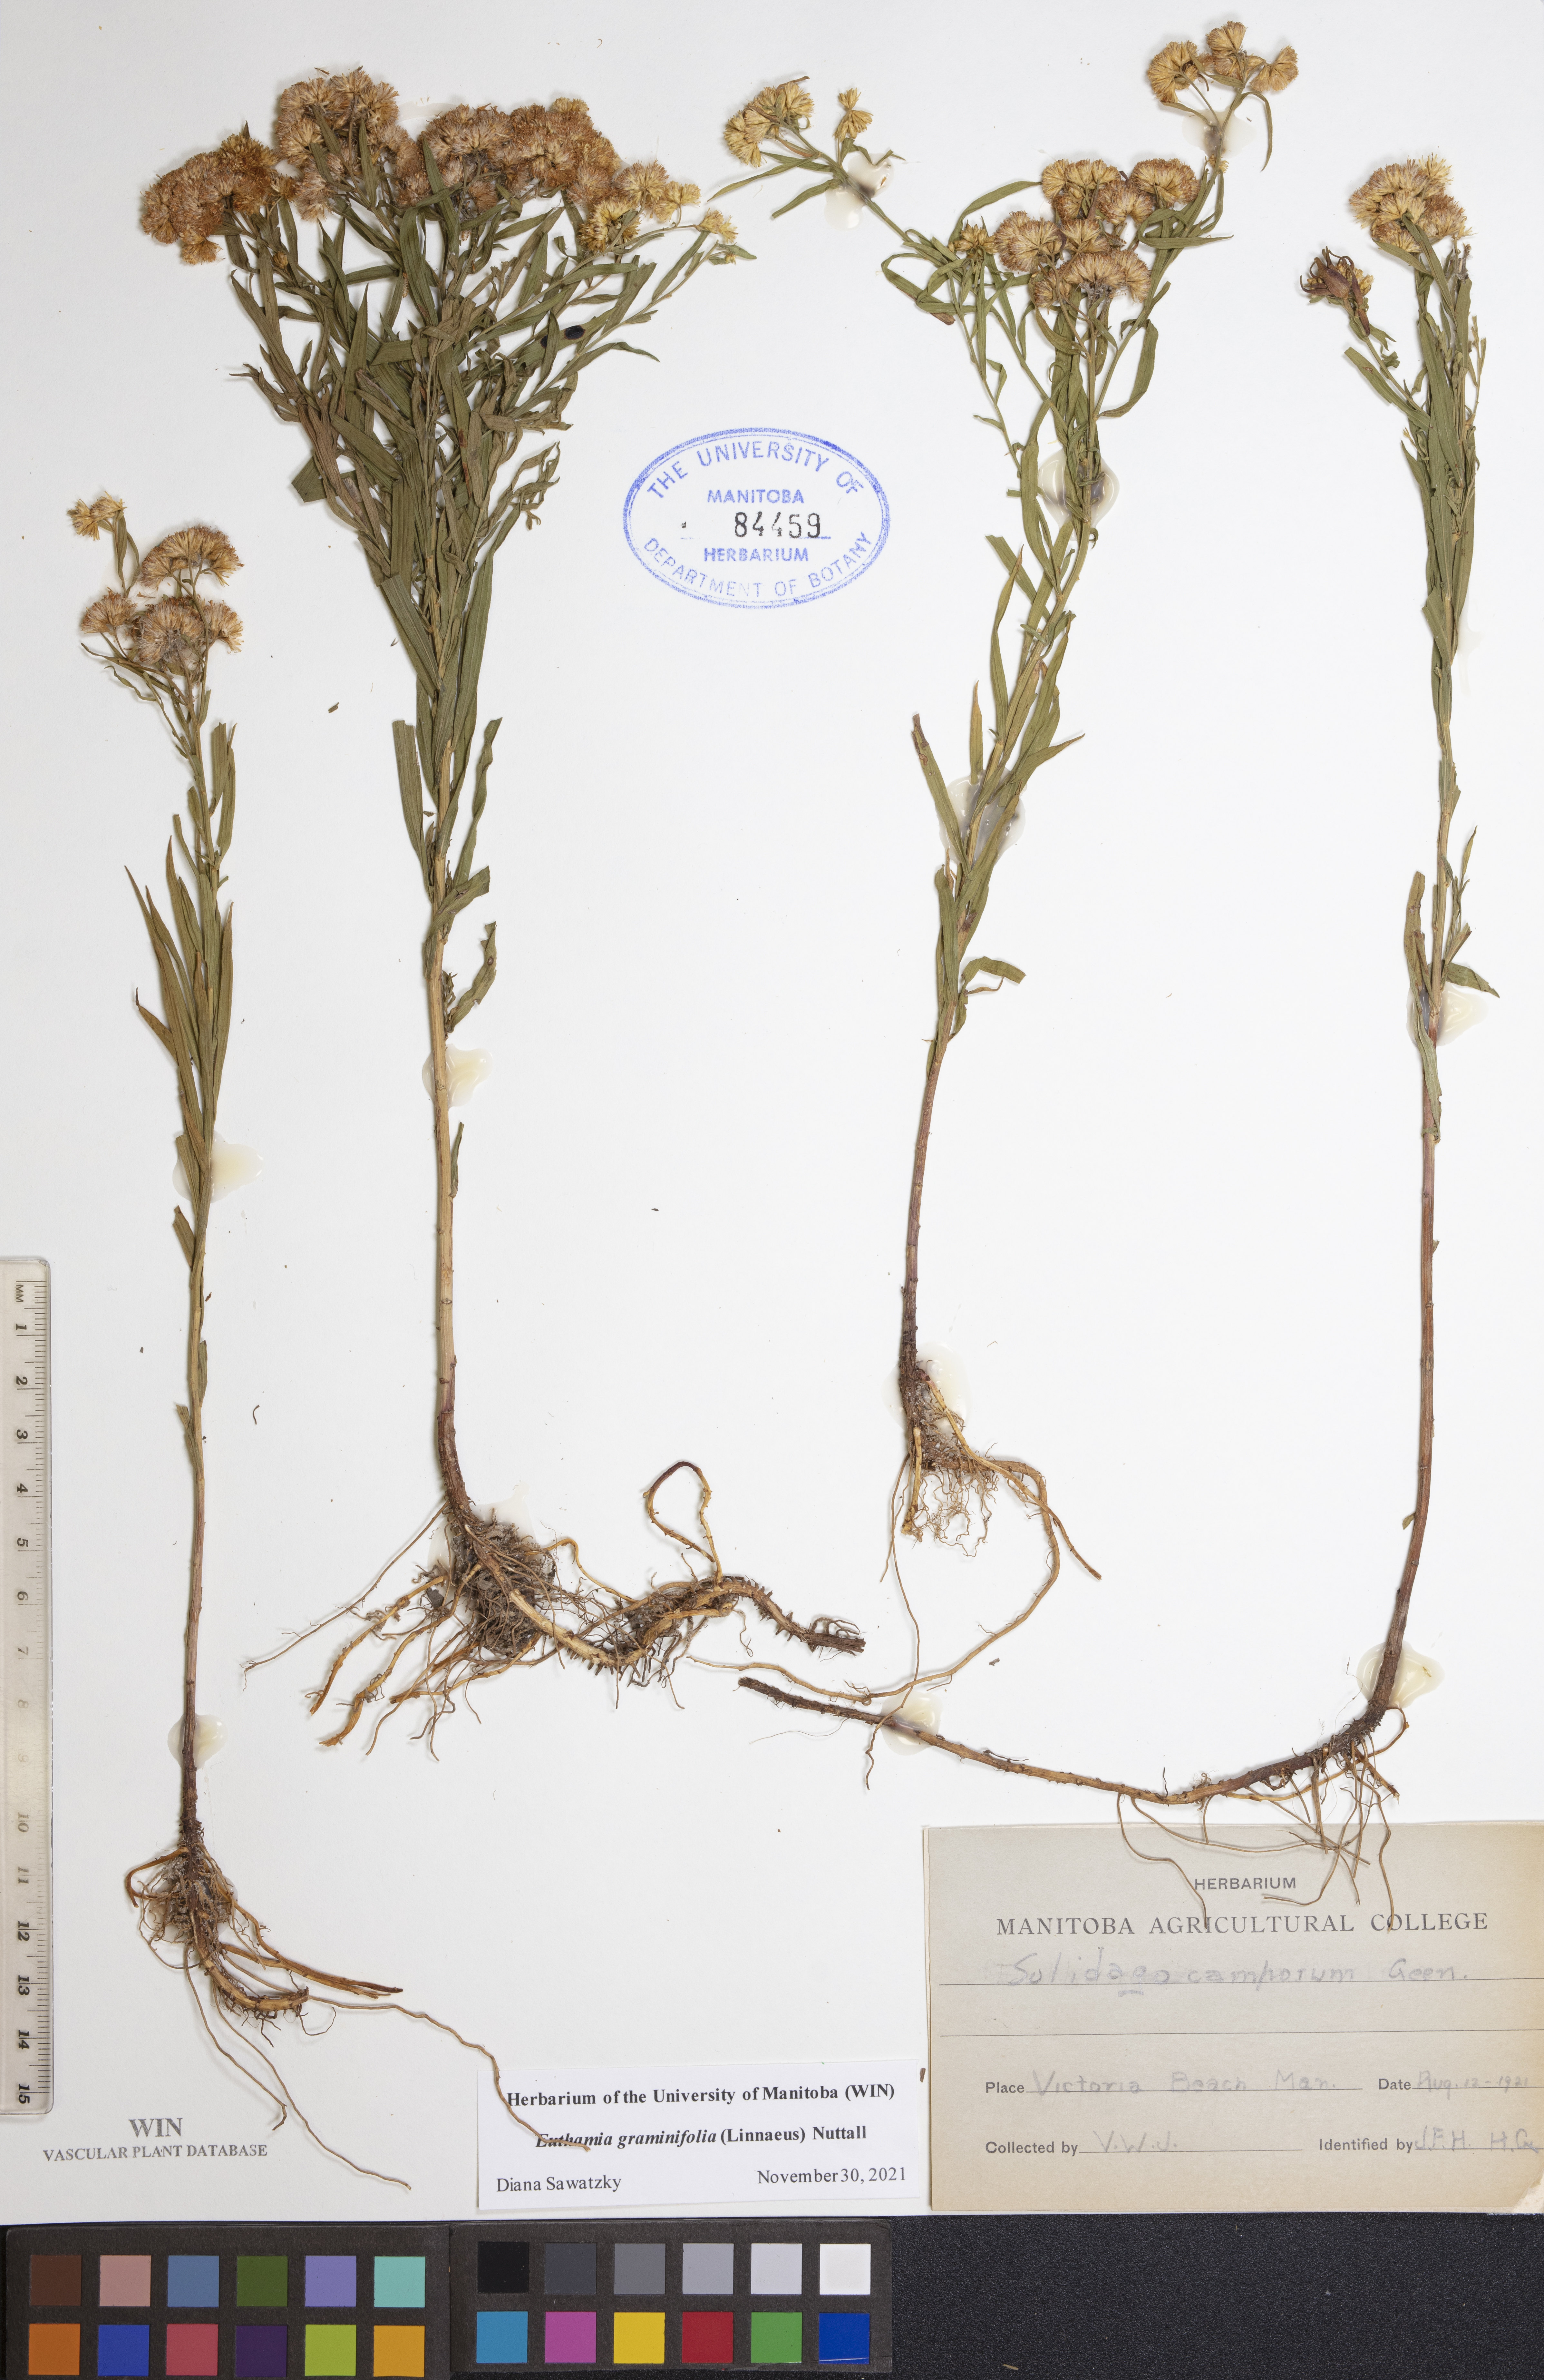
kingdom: Plantae
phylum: Tracheophyta
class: Magnoliopsida
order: Asterales
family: Asteraceae
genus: Euthamia
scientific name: Euthamia graminifolia
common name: Common goldentop
